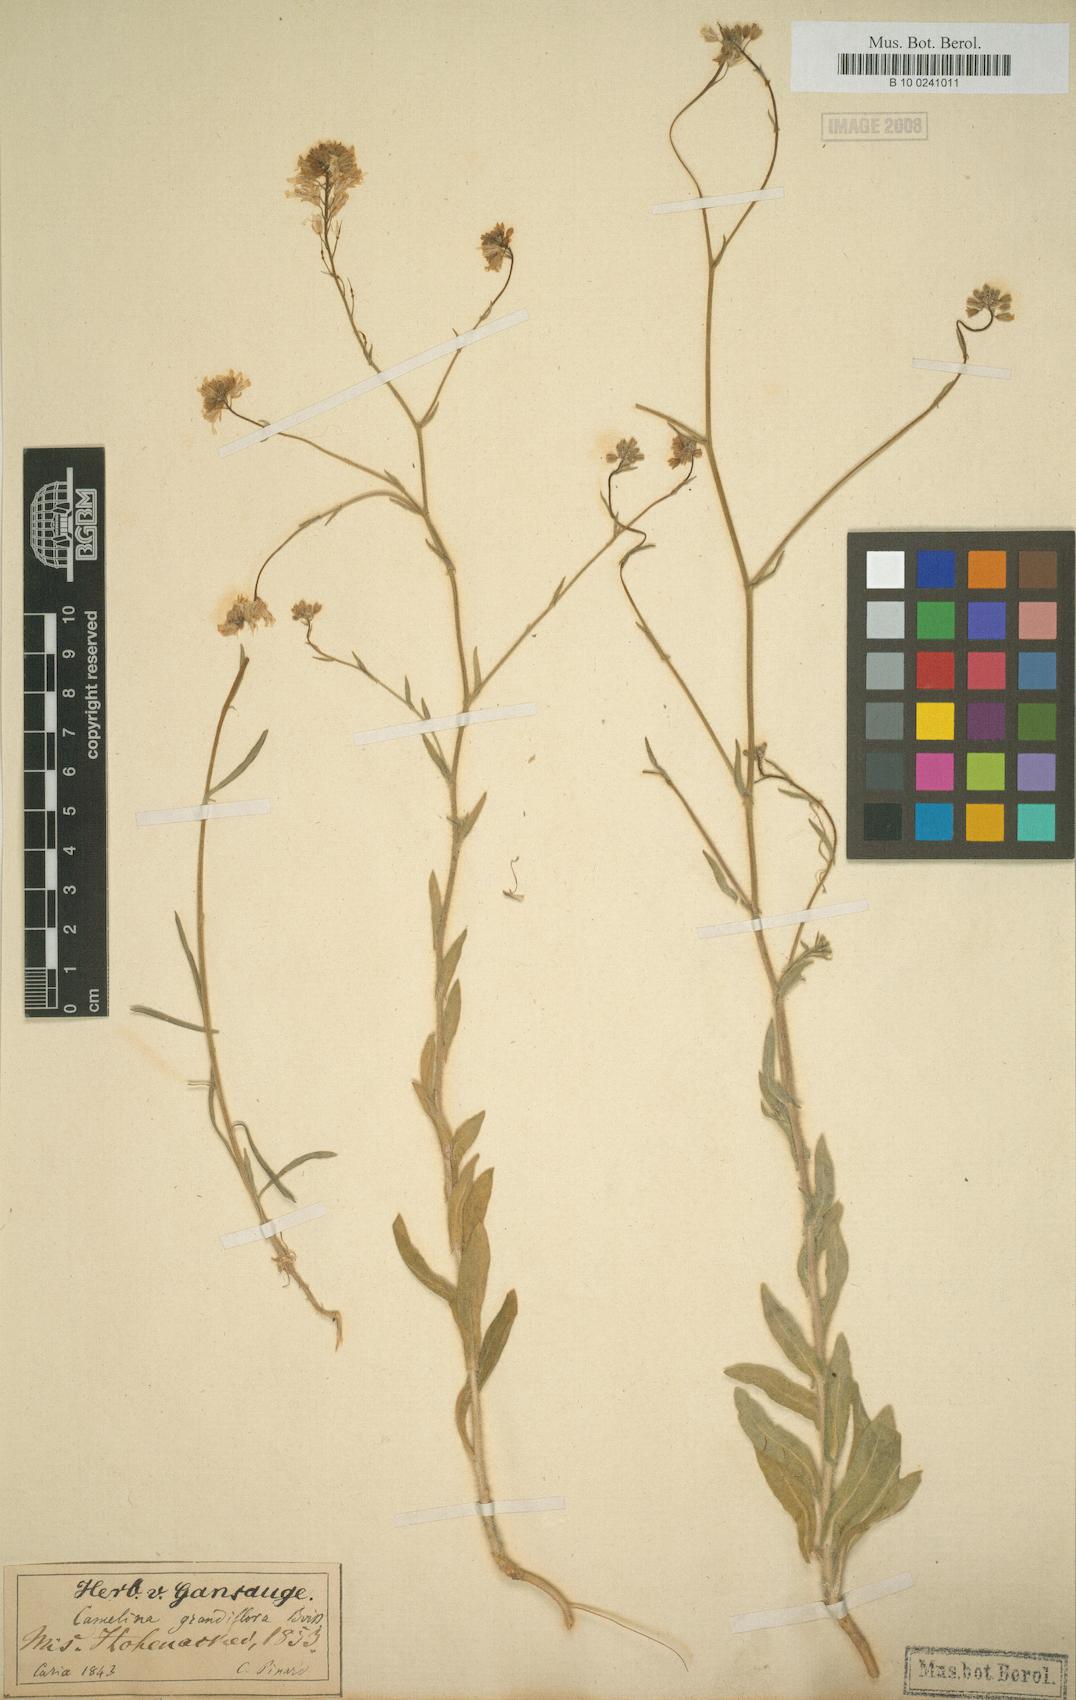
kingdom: Plantae
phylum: Tracheophyta
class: Magnoliopsida
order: Brassicales
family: Brassicaceae
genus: Camelina
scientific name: Camelina grandiflora
